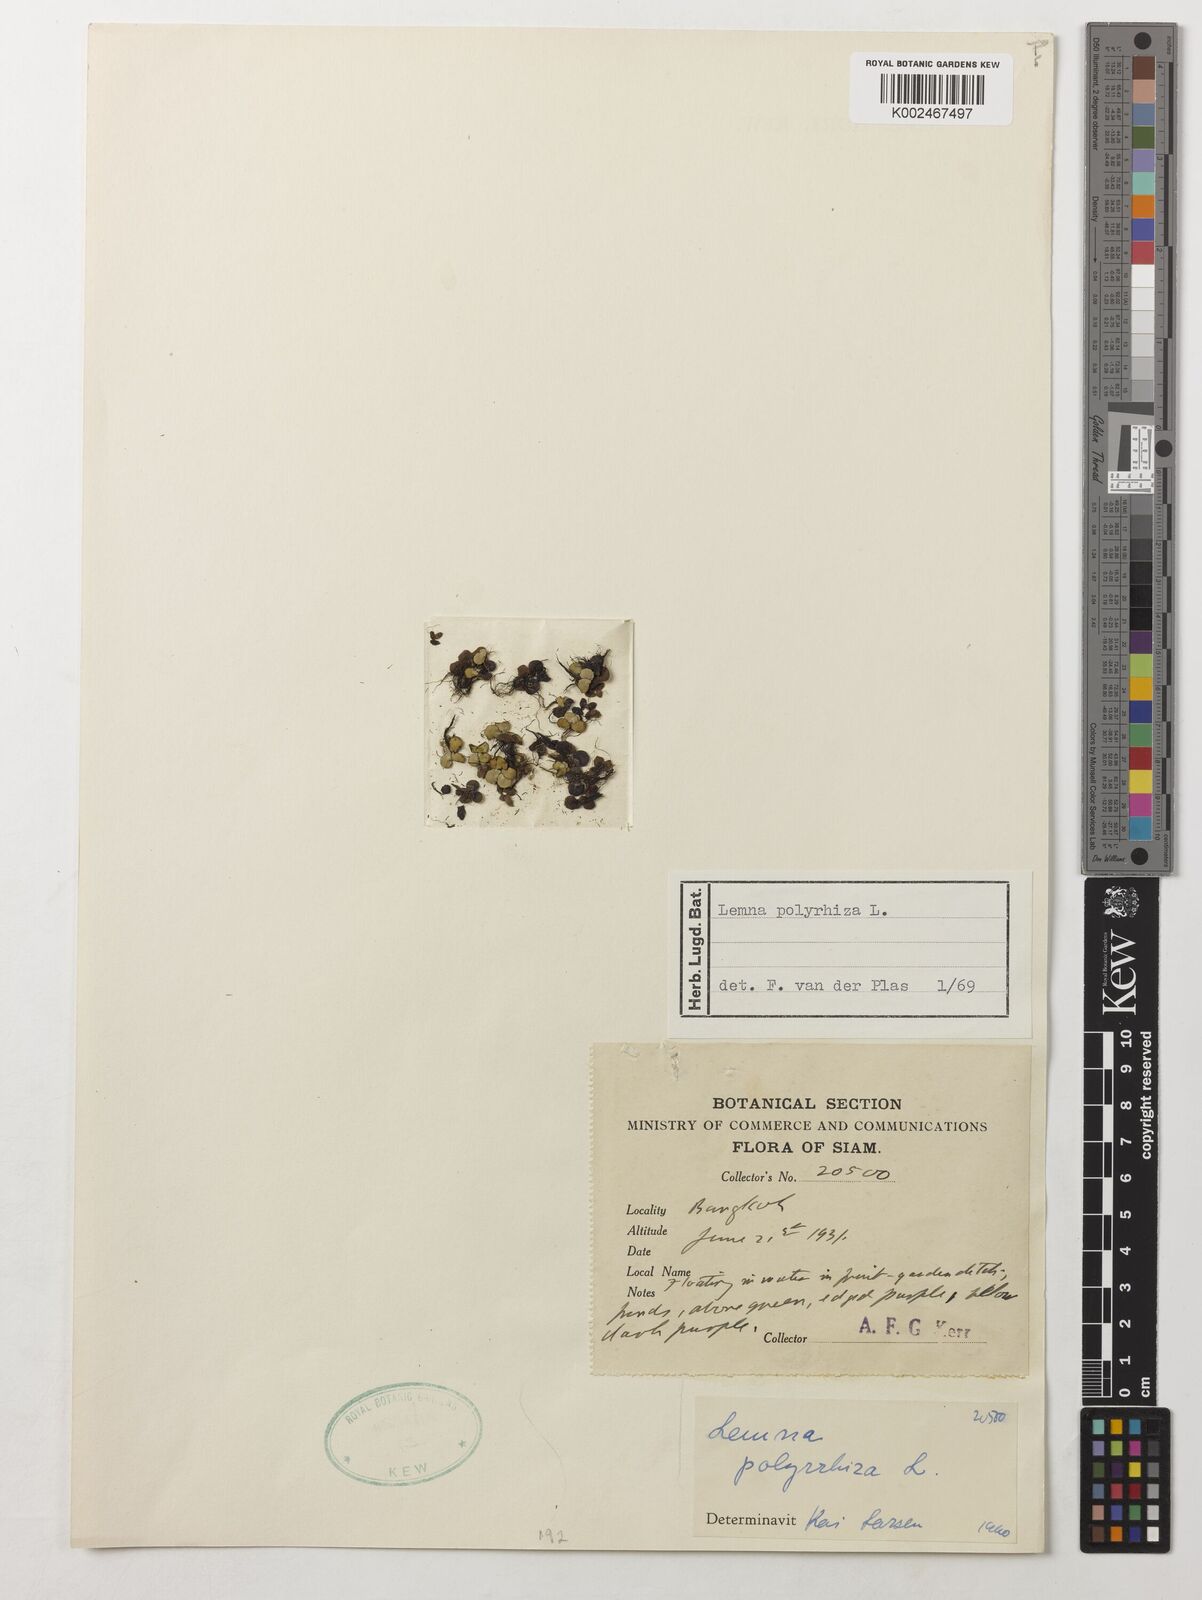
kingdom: Plantae
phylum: Tracheophyta
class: Liliopsida
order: Alismatales
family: Araceae
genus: Spirodela
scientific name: Spirodela polyrhiza
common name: Great duckweed
